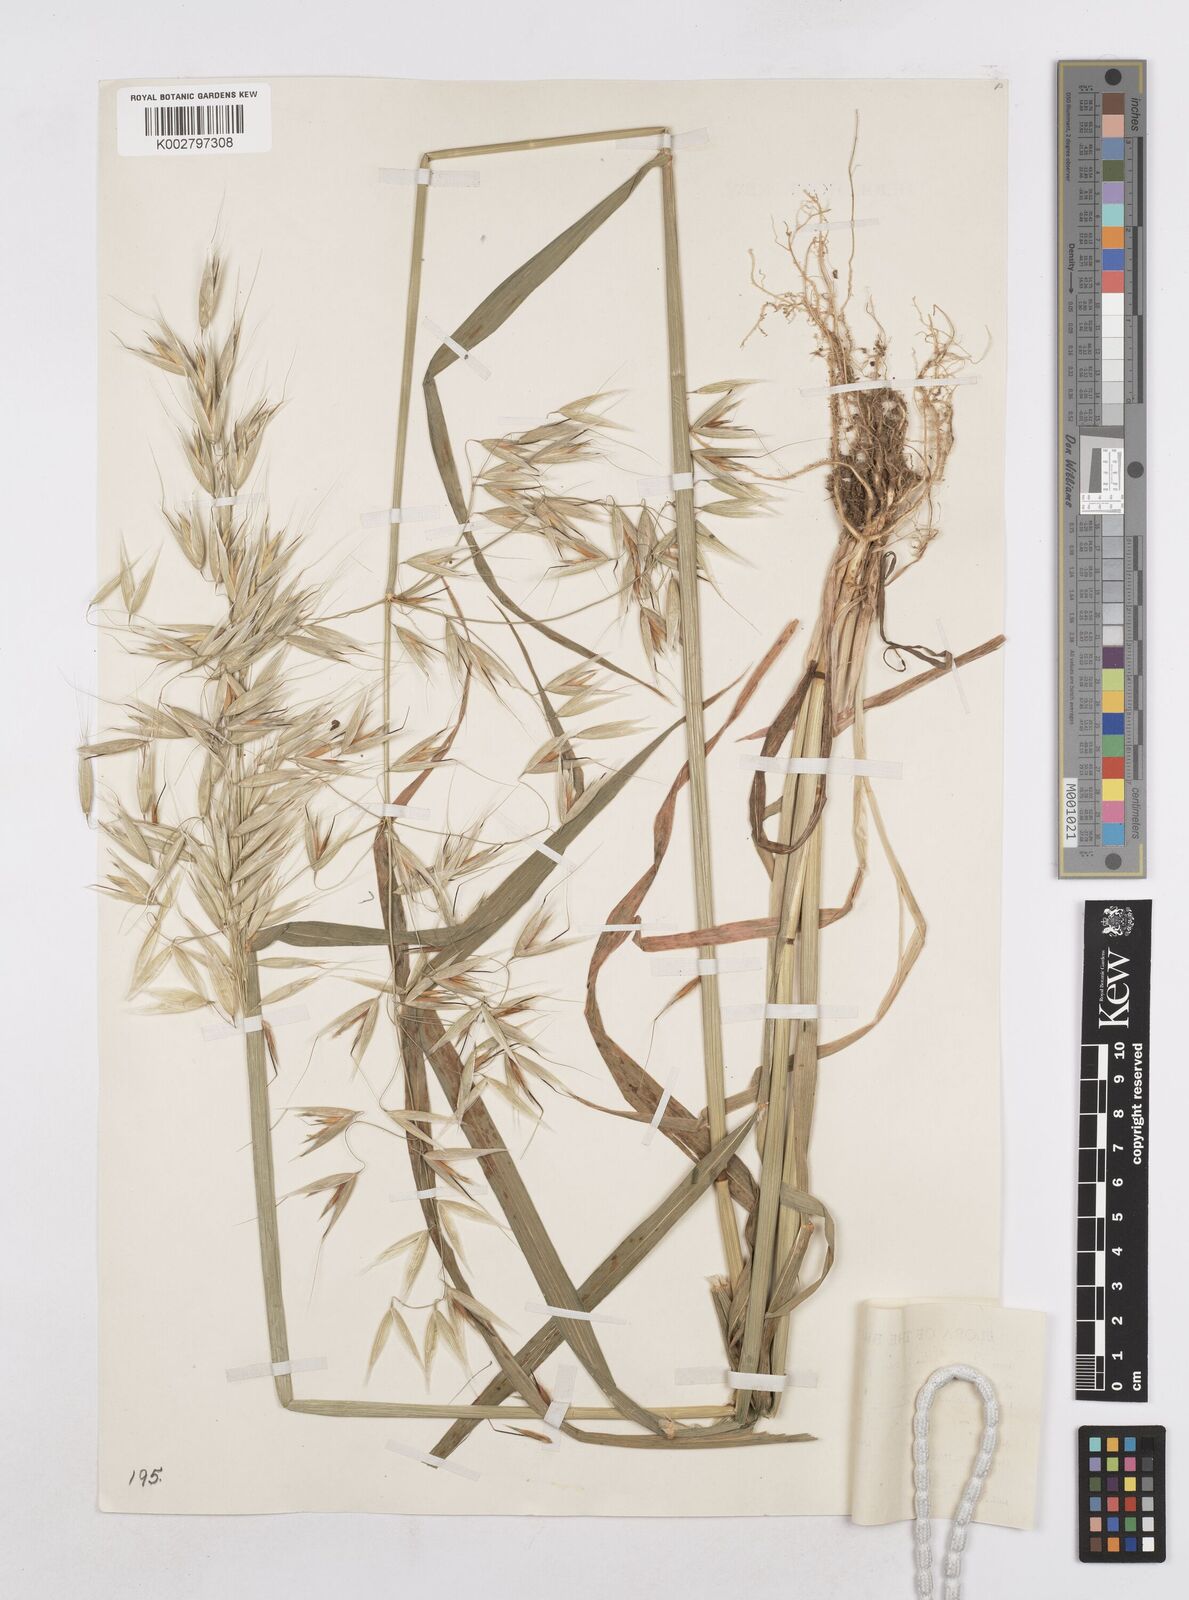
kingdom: Plantae
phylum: Tracheophyta
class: Liliopsida
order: Poales
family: Poaceae
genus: Avena
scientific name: Avena fatua
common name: Wild oat
